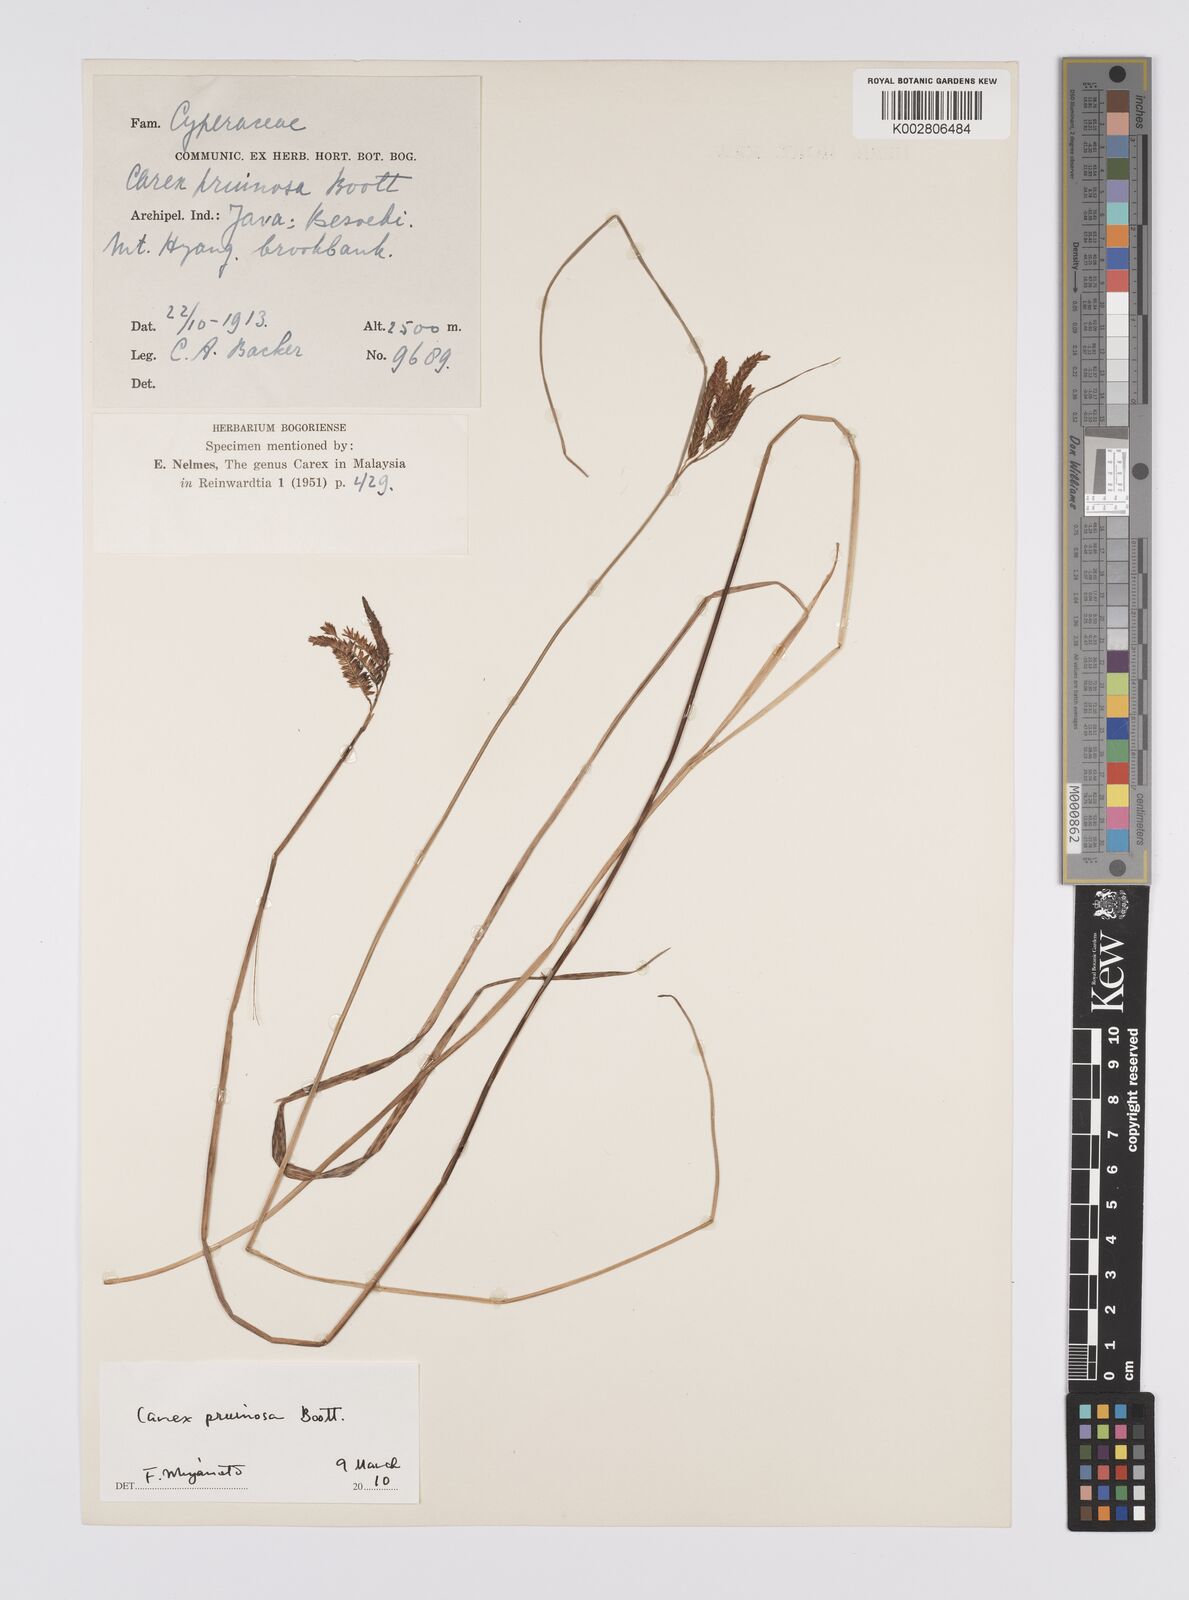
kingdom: Plantae
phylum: Tracheophyta
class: Liliopsida
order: Poales
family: Cyperaceae
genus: Carex
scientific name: Carex pruinosa
